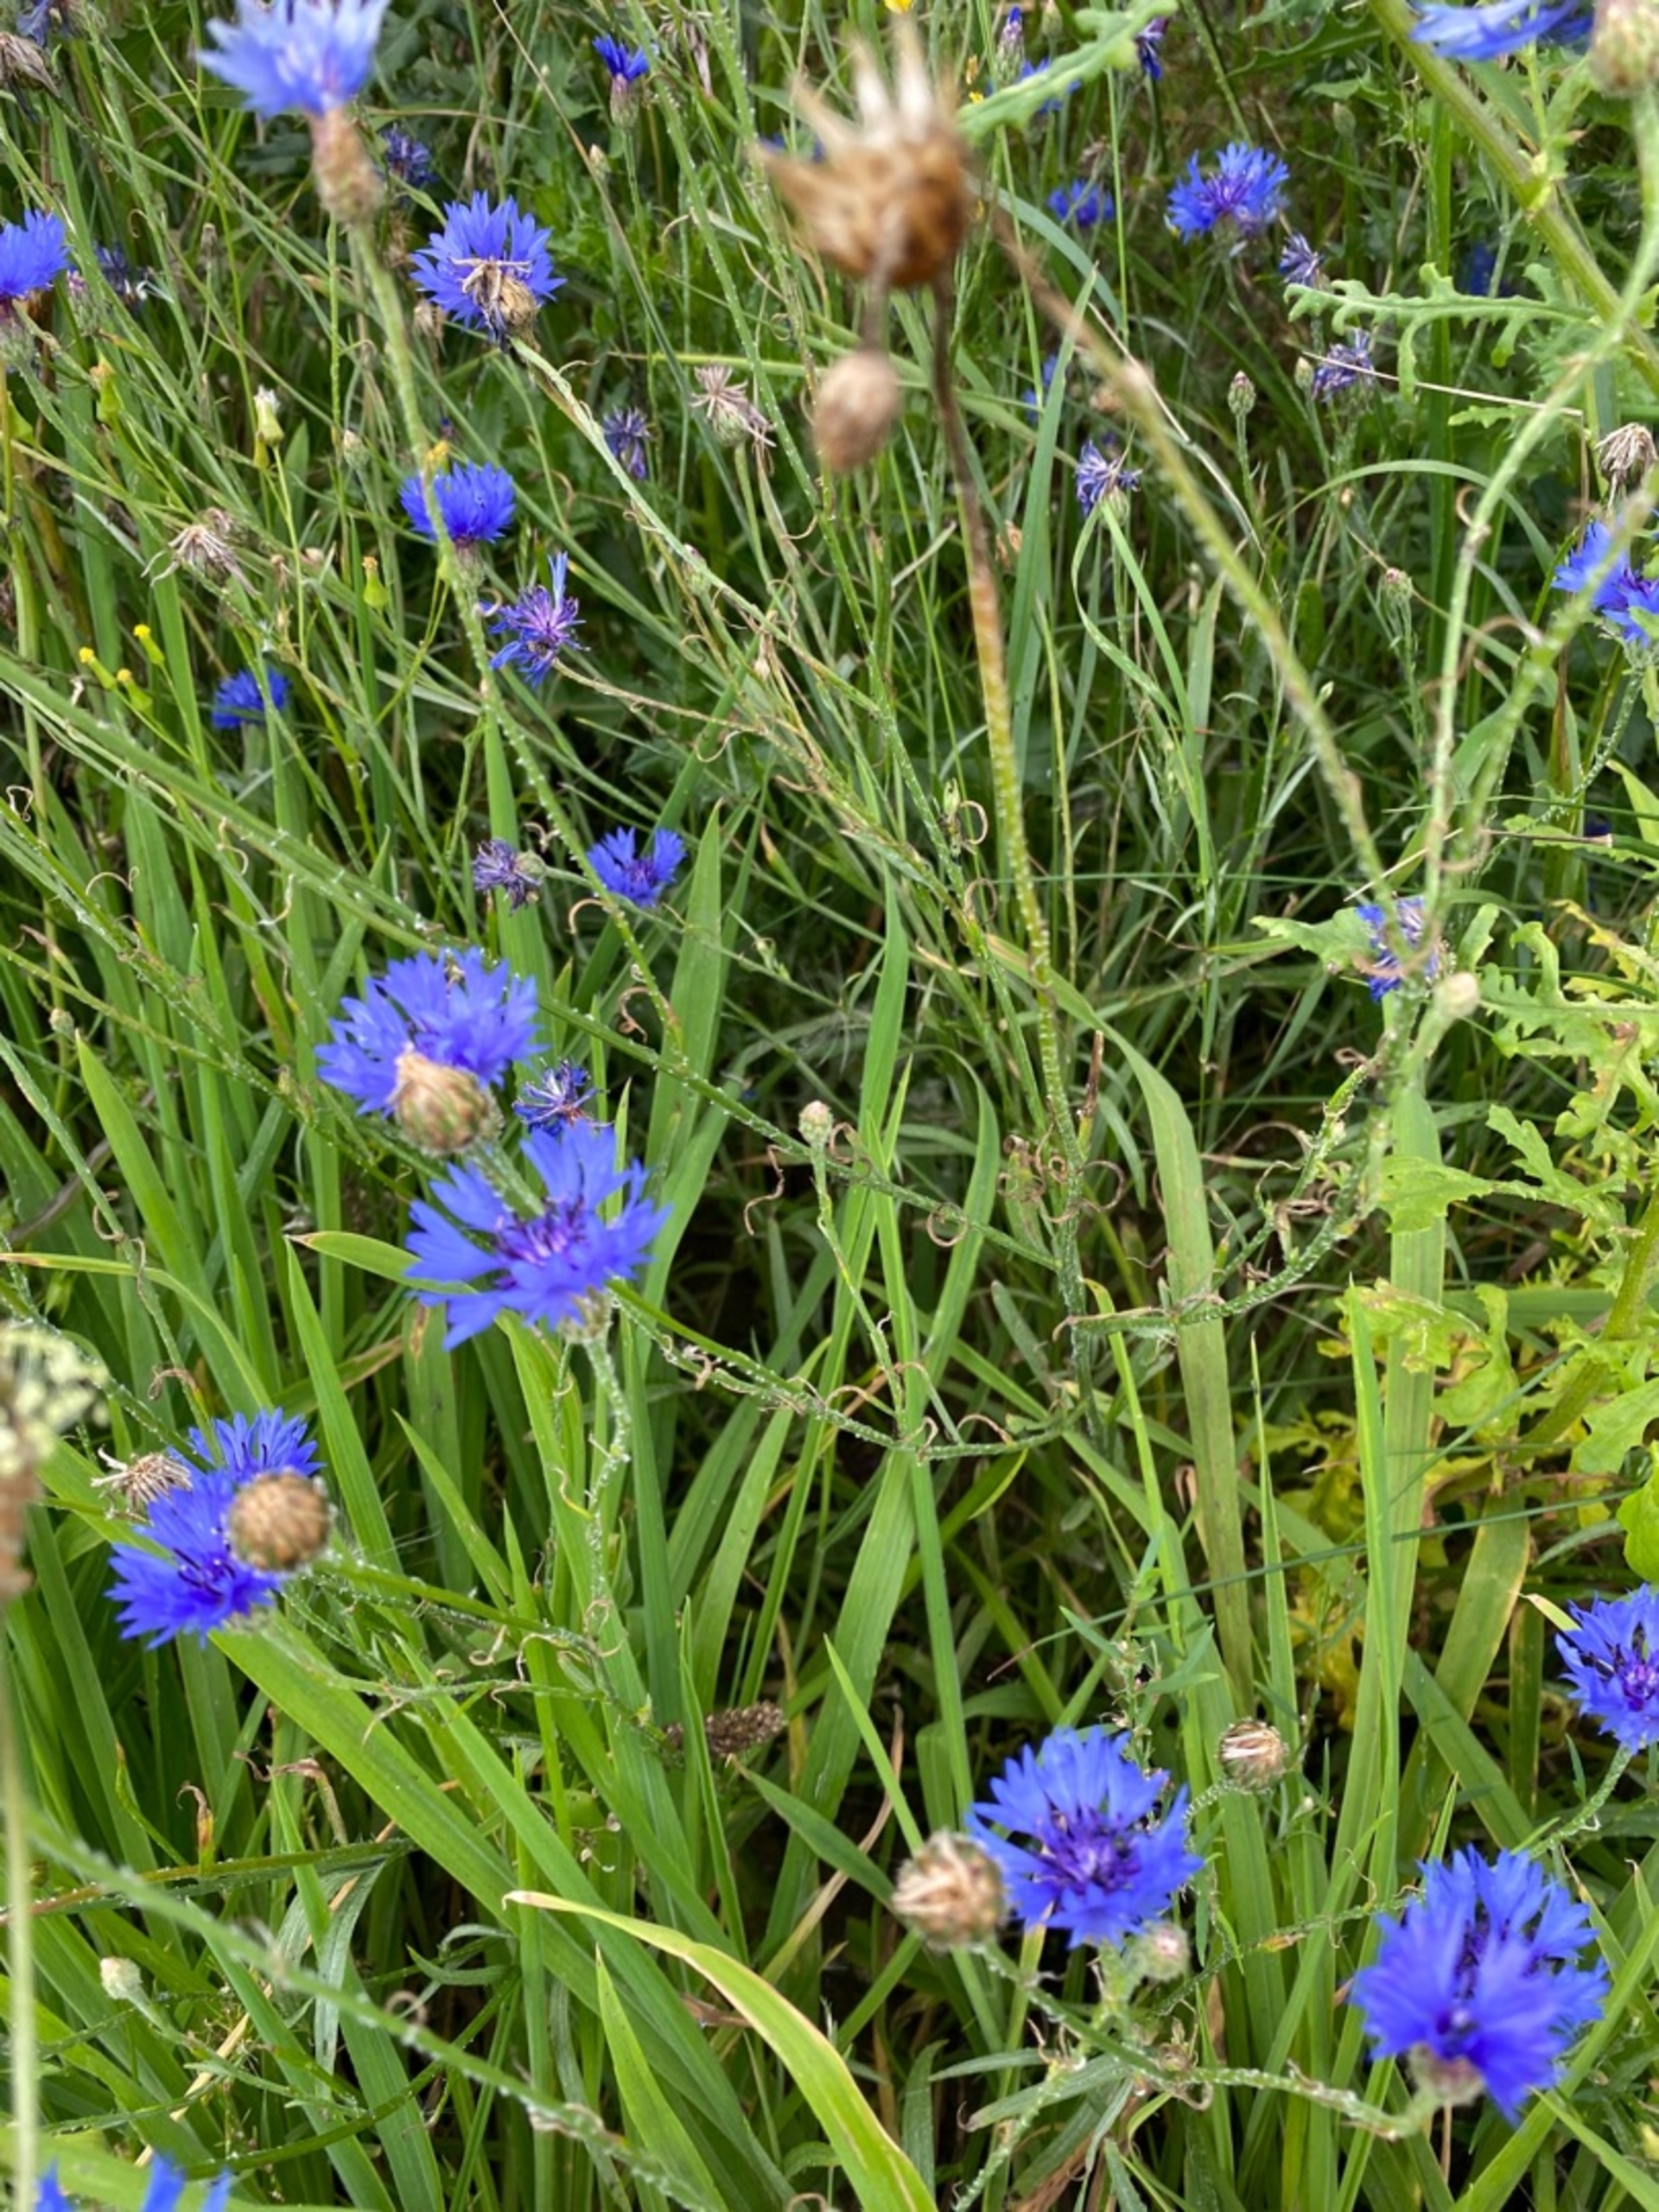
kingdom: Plantae
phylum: Tracheophyta
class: Magnoliopsida
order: Asterales
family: Asteraceae
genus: Centaurea
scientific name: Centaurea cyanus
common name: Kornblomst
